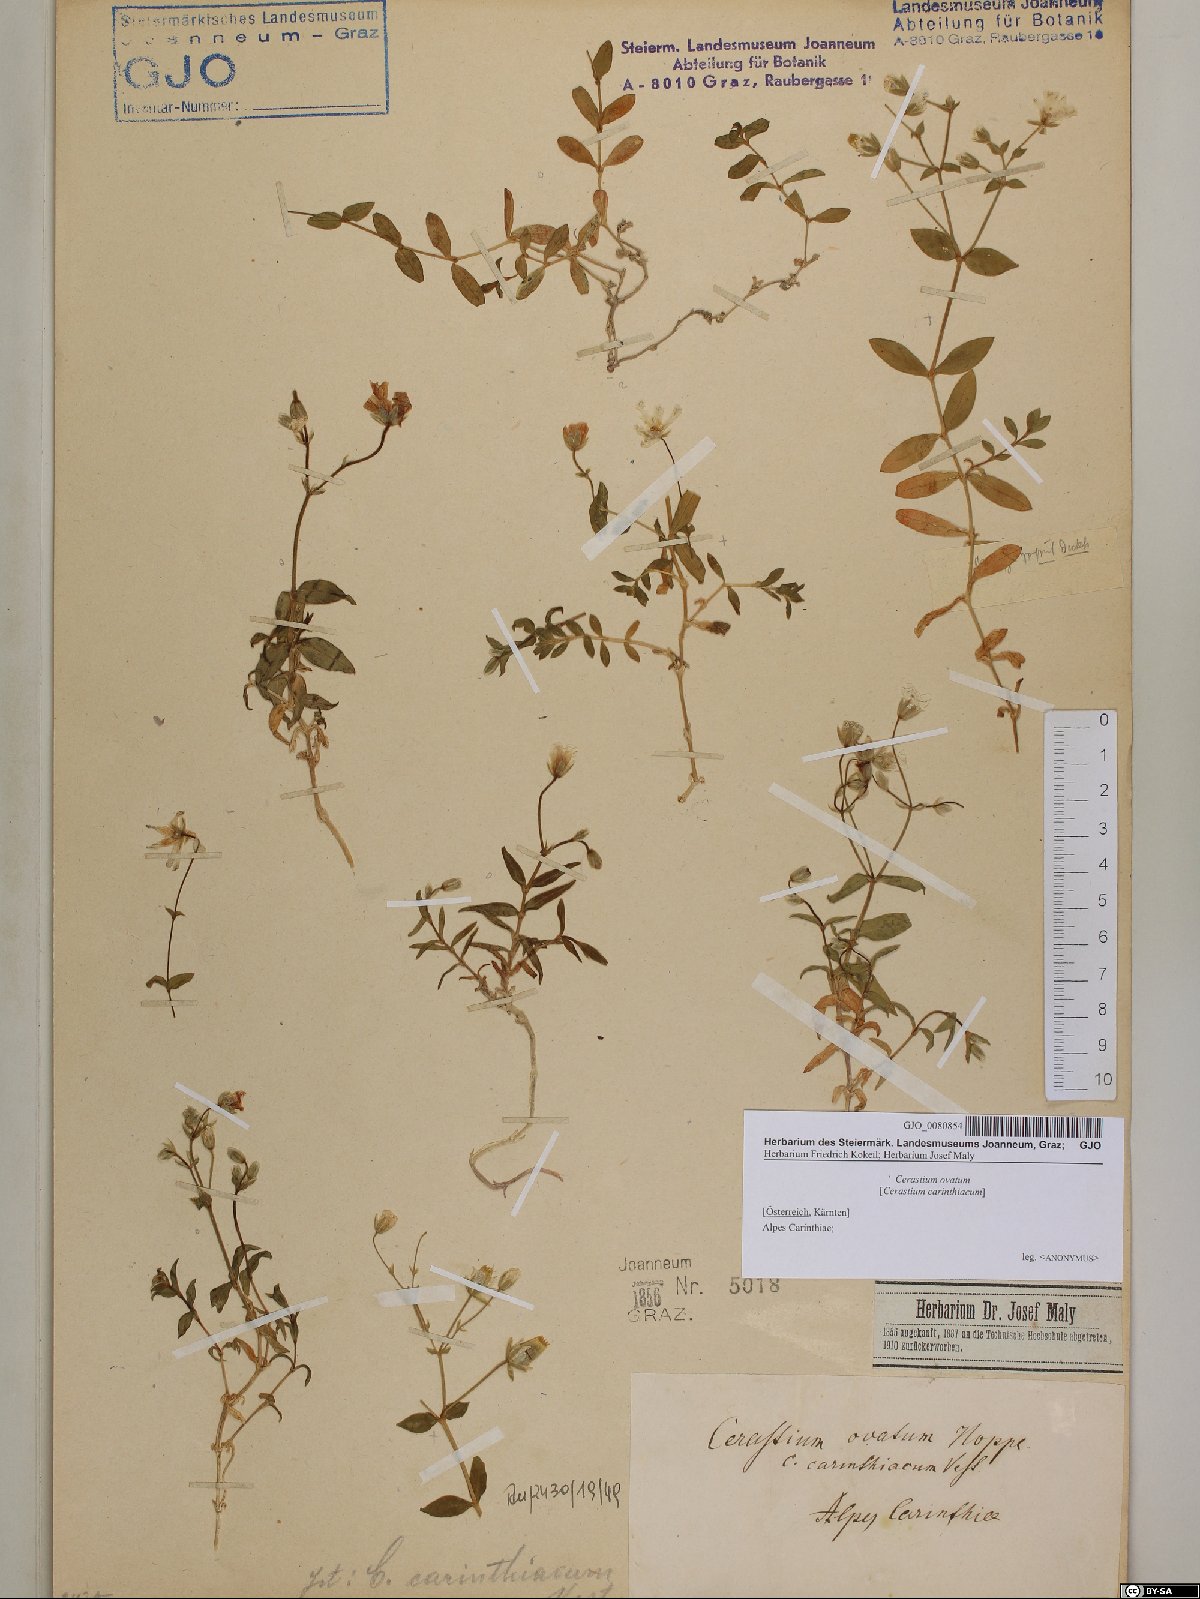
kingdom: Plantae
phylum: Tracheophyta
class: Magnoliopsida
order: Caryophyllales
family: Caryophyllaceae
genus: Cerastium
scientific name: Cerastium arvense
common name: Field mouse-ear
